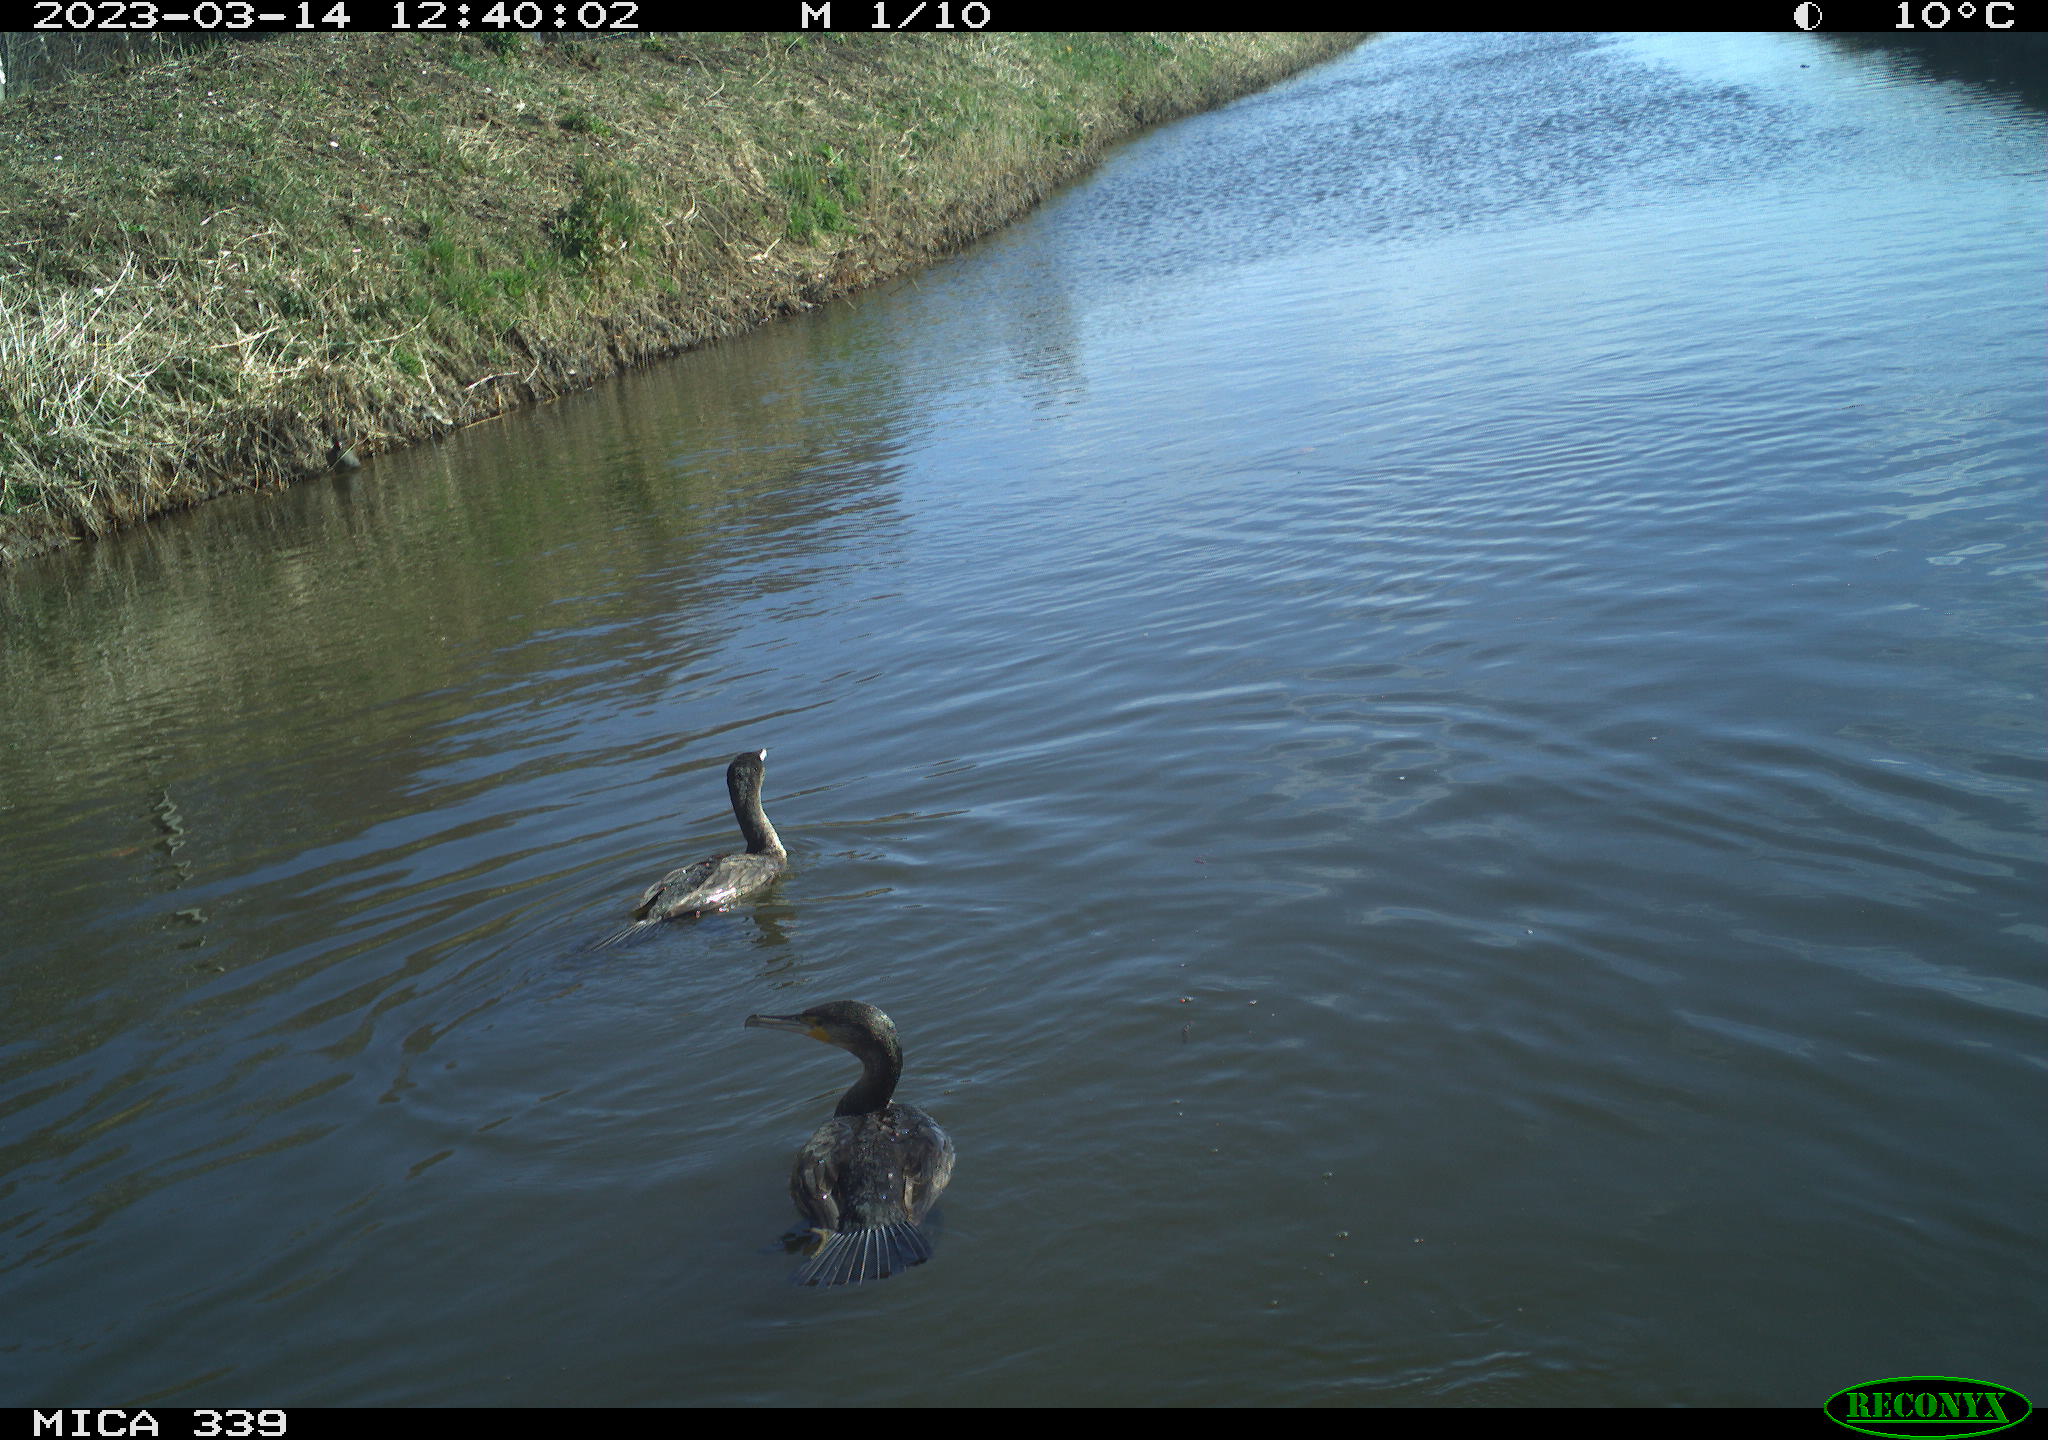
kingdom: Animalia
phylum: Chordata
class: Aves
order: Suliformes
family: Phalacrocoracidae
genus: Phalacrocorax
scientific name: Phalacrocorax carbo
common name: Great cormorant
